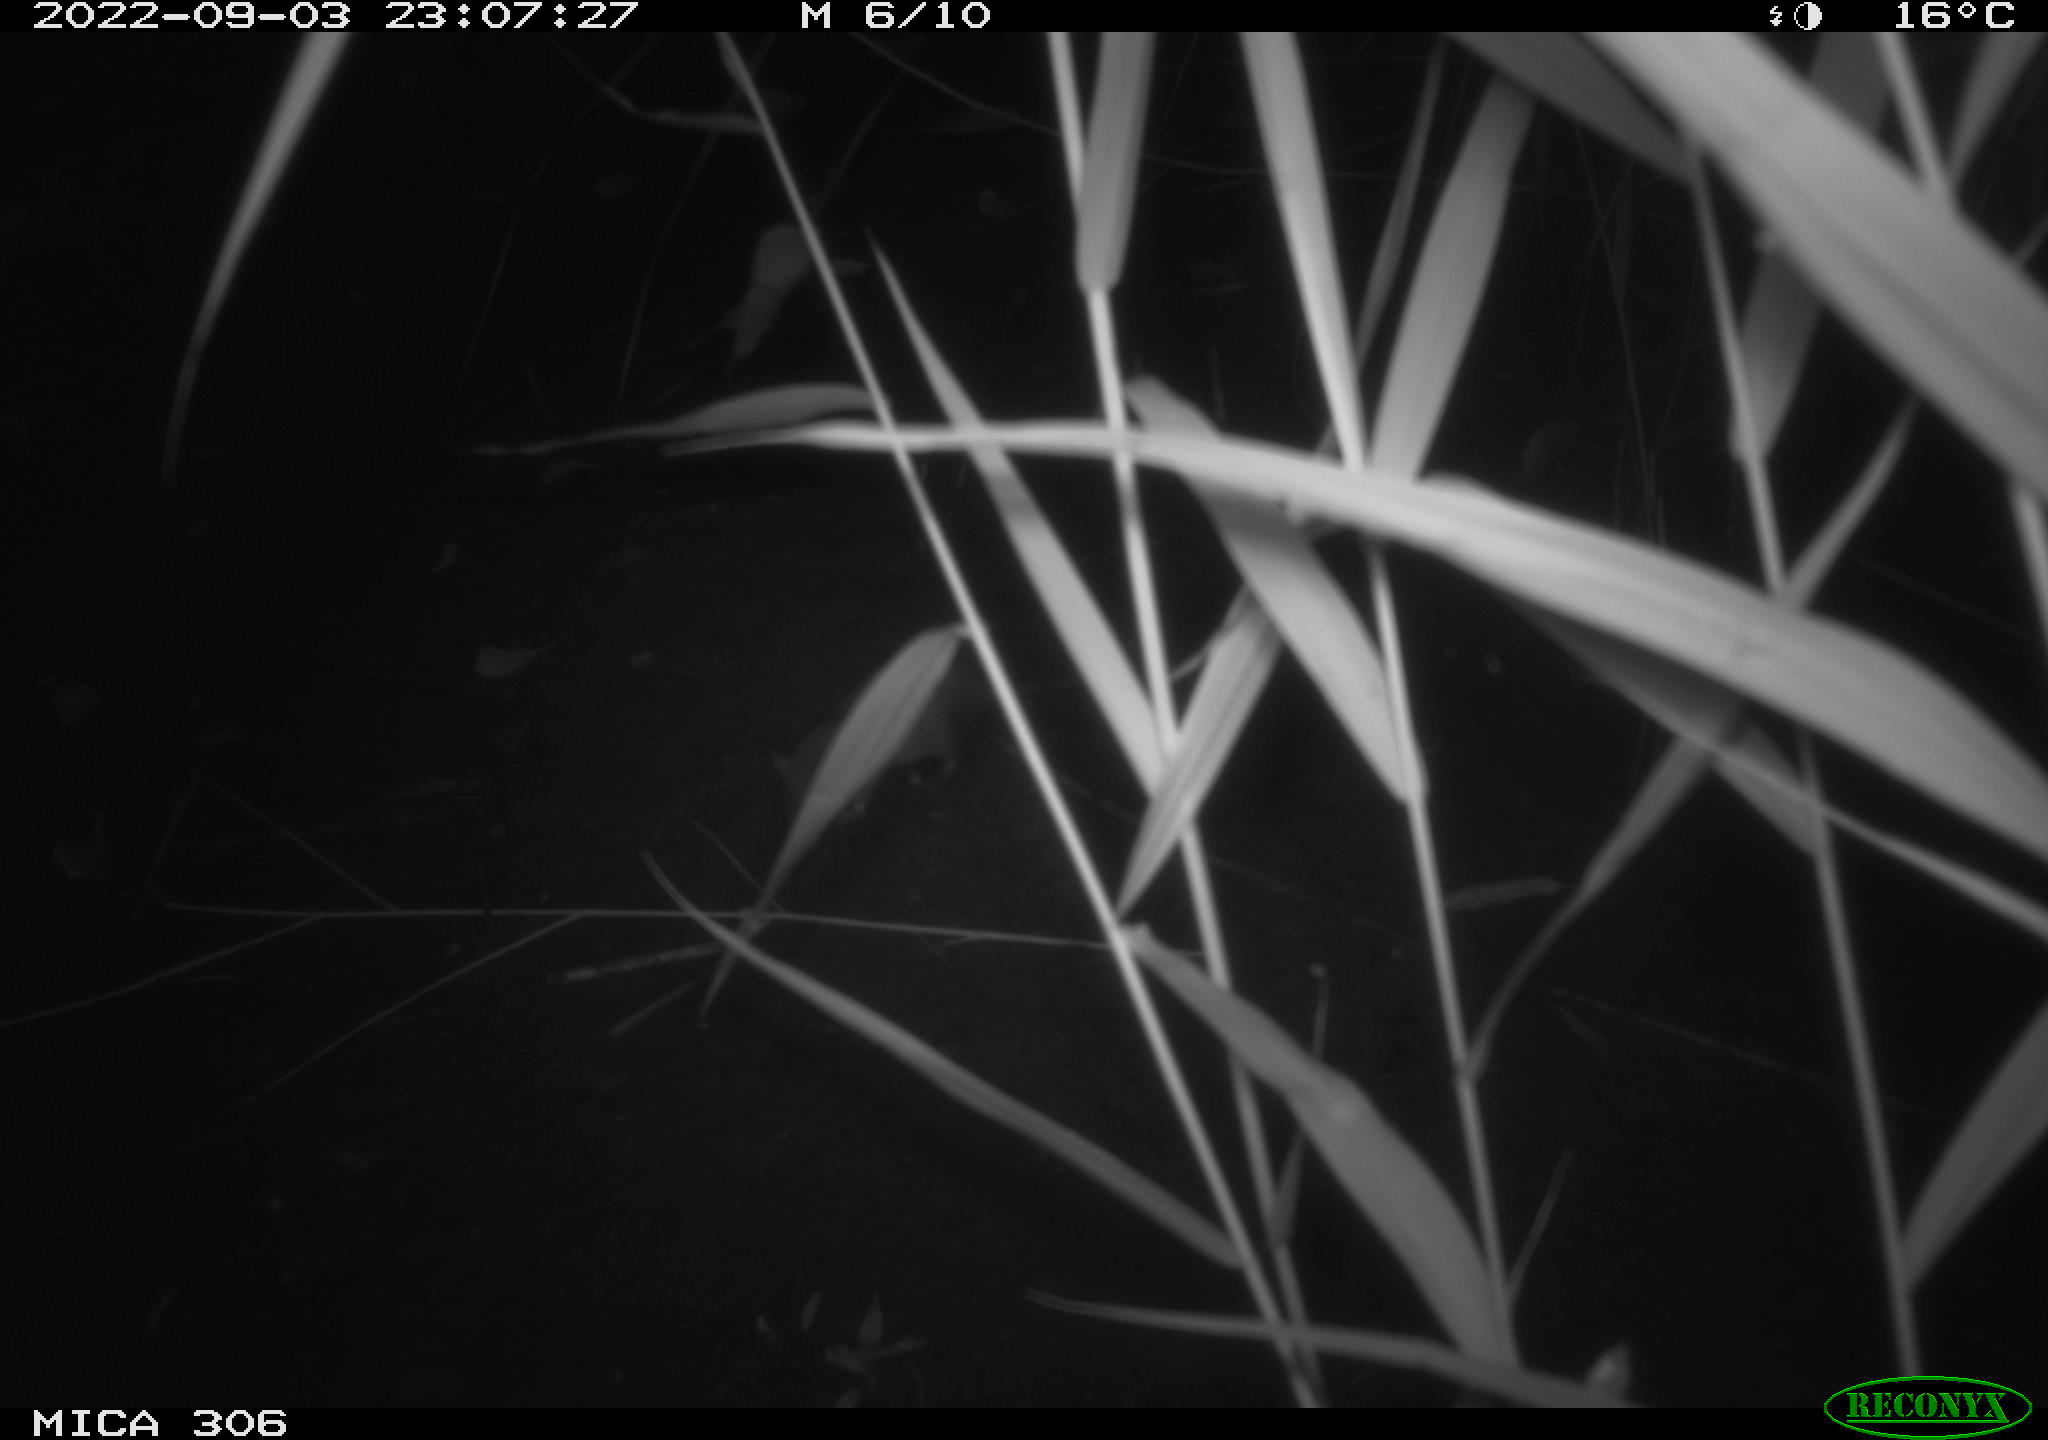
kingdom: Animalia
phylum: Chordata
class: Mammalia
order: Rodentia
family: Muridae
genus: Rattus
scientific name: Rattus norvegicus
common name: Brown rat
